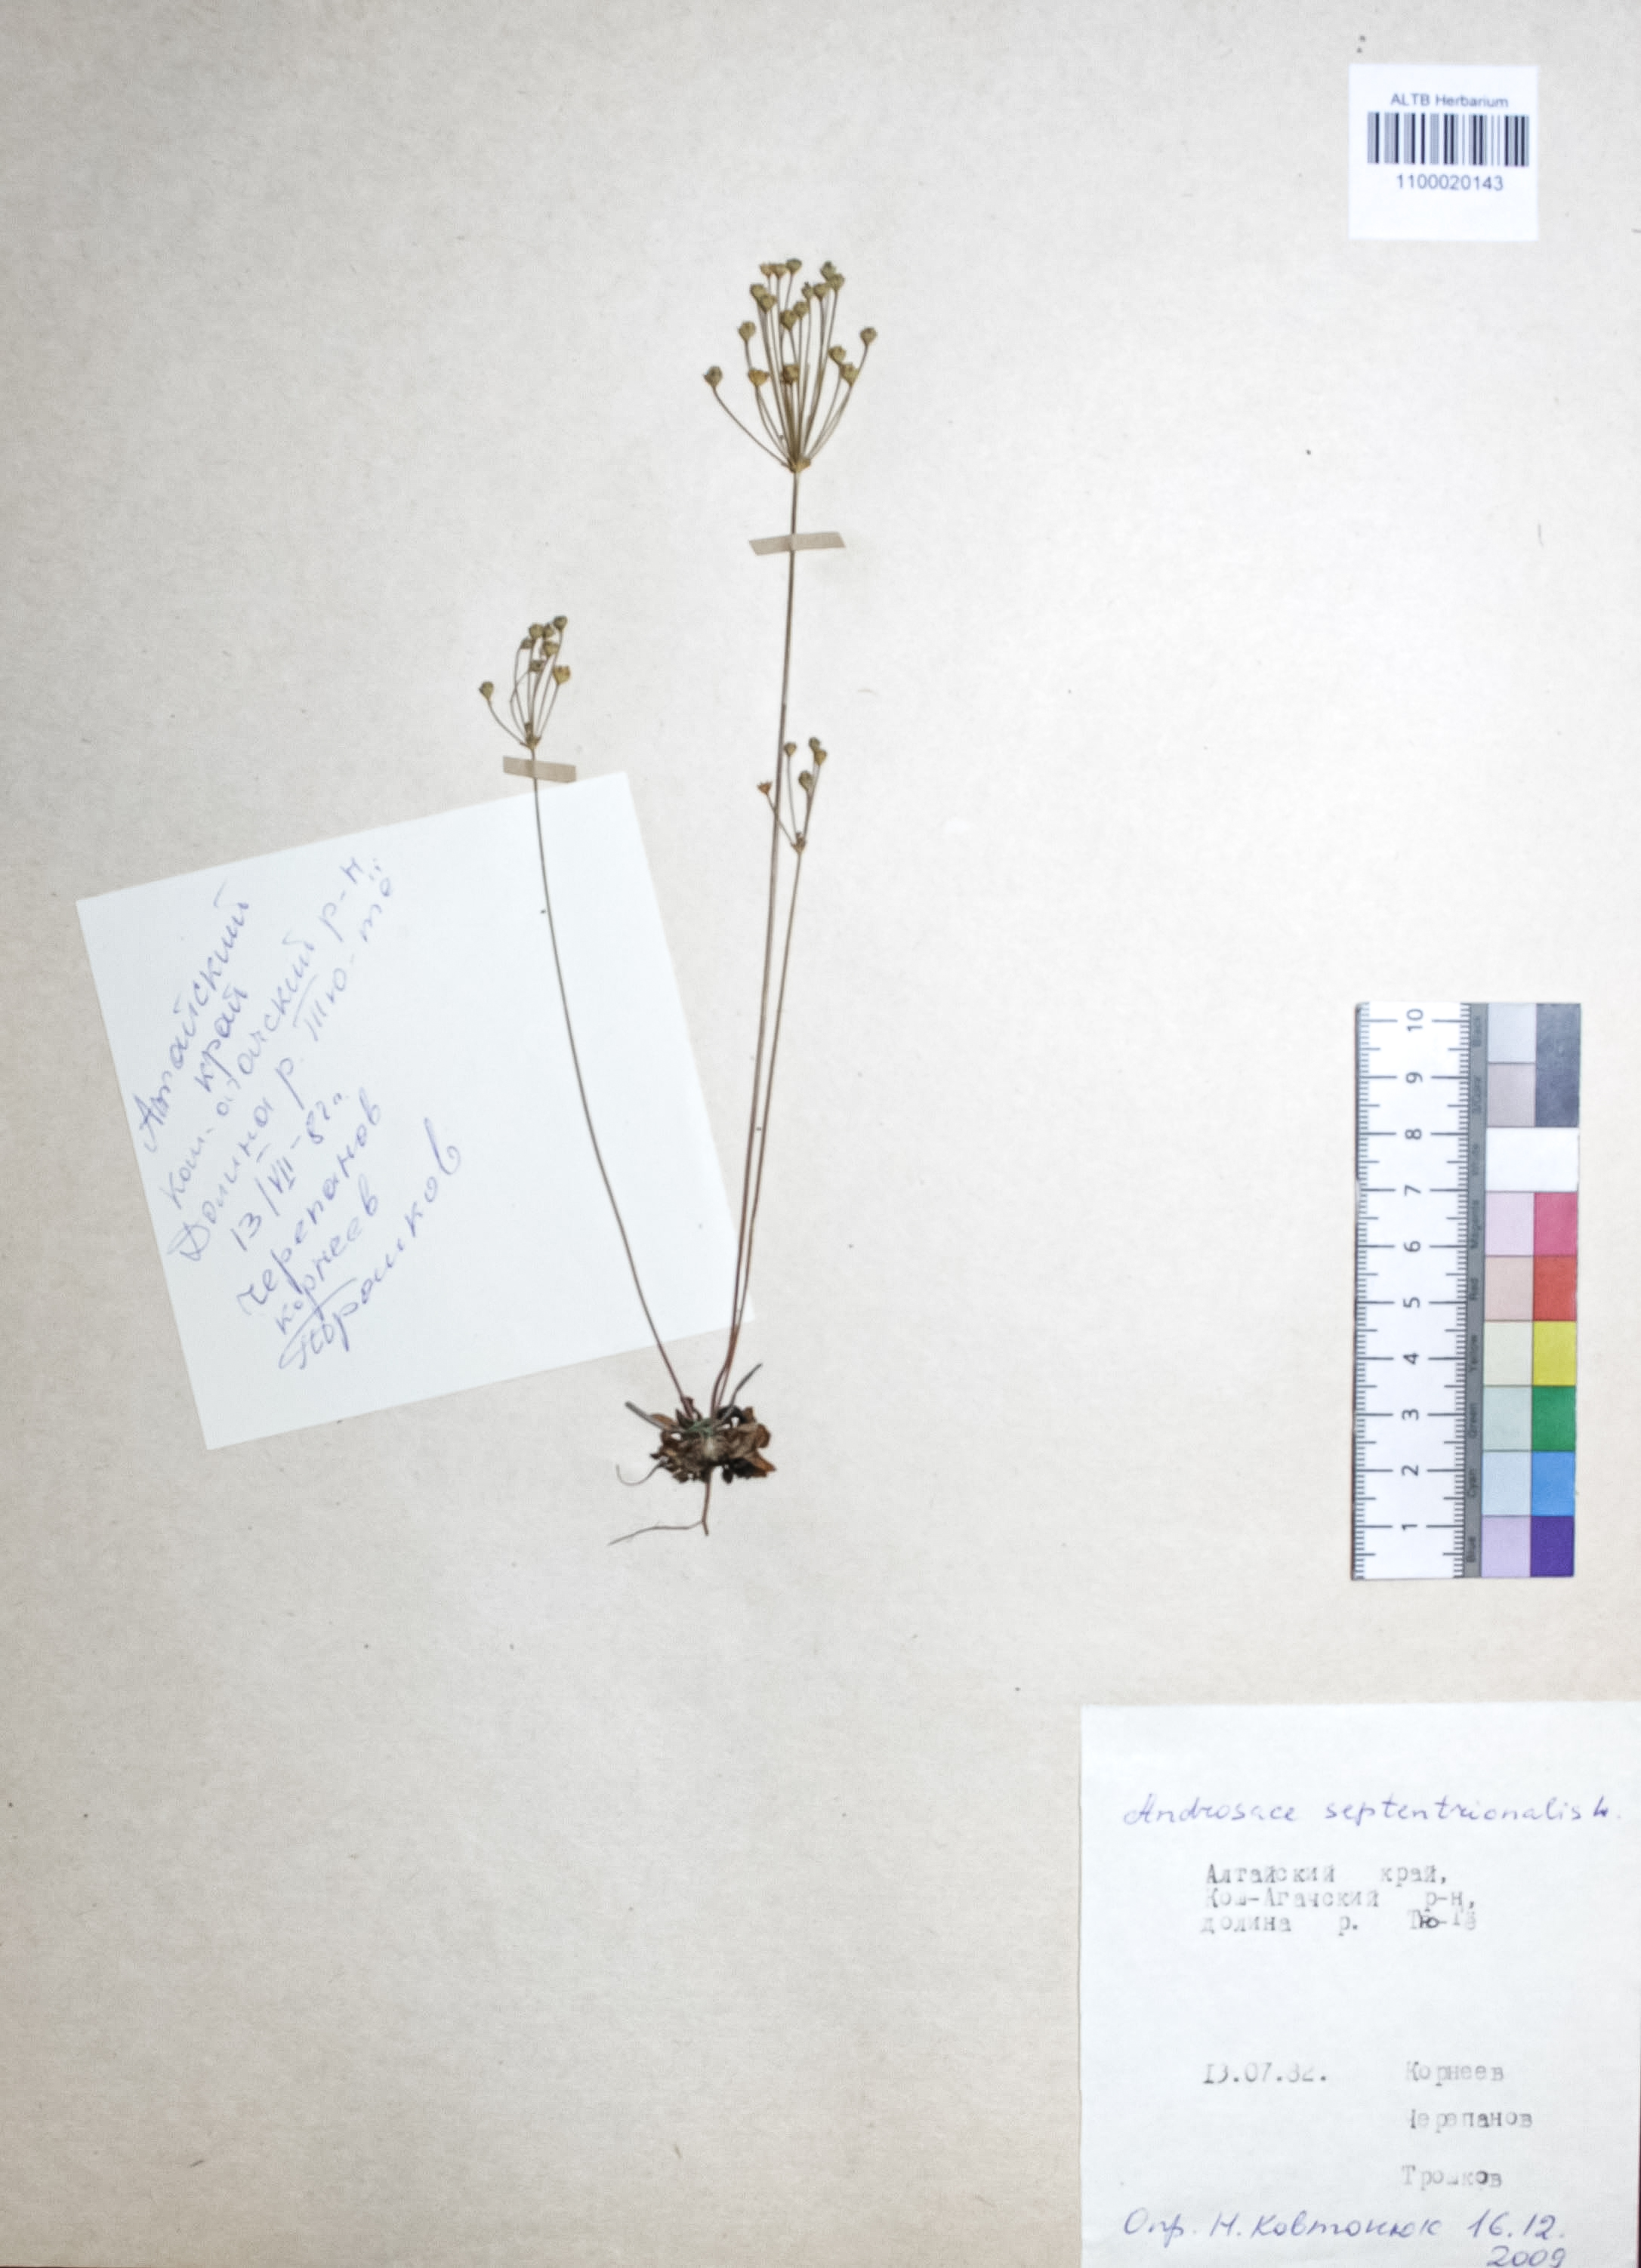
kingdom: Plantae
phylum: Tracheophyta
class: Magnoliopsida
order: Ericales
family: Primulaceae
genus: Androsace
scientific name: Androsace septentrionalis
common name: Hairy northern fairy-candelabra
